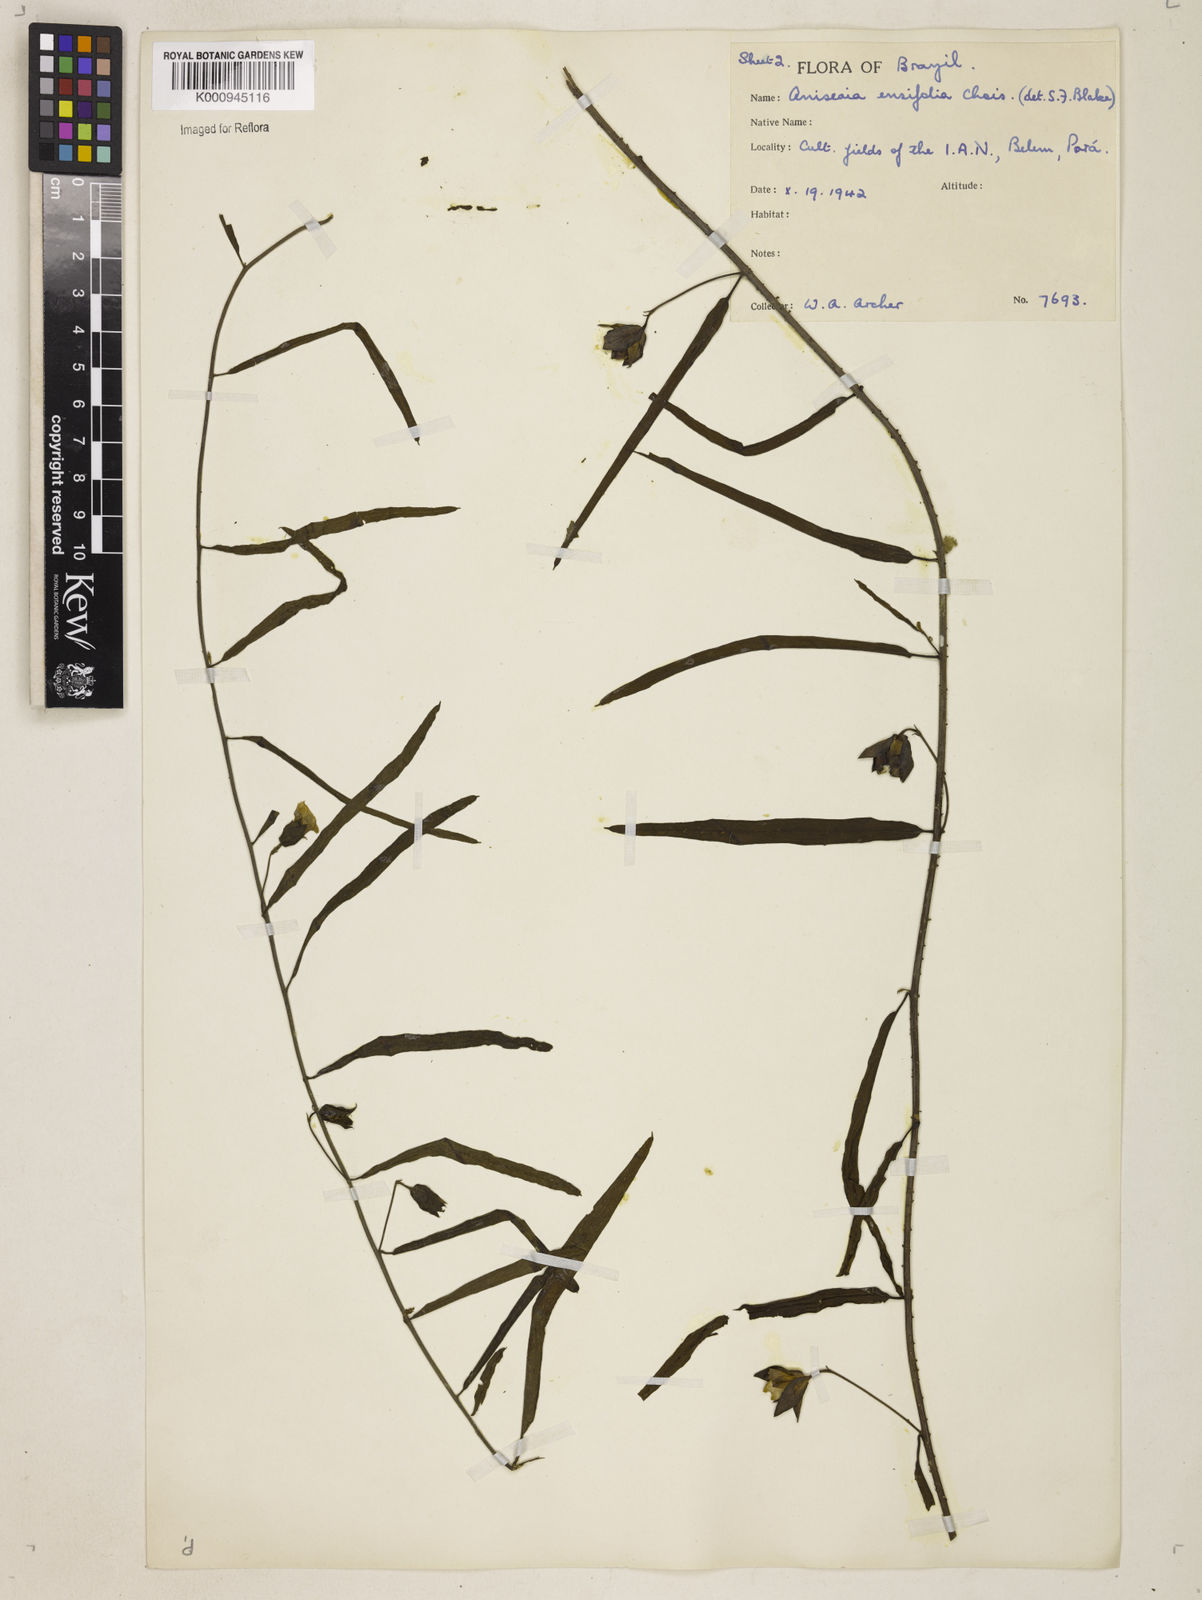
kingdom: Plantae
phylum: Tracheophyta
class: Magnoliopsida
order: Solanales
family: Convolvulaceae
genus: Aniseia
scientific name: Aniseia
